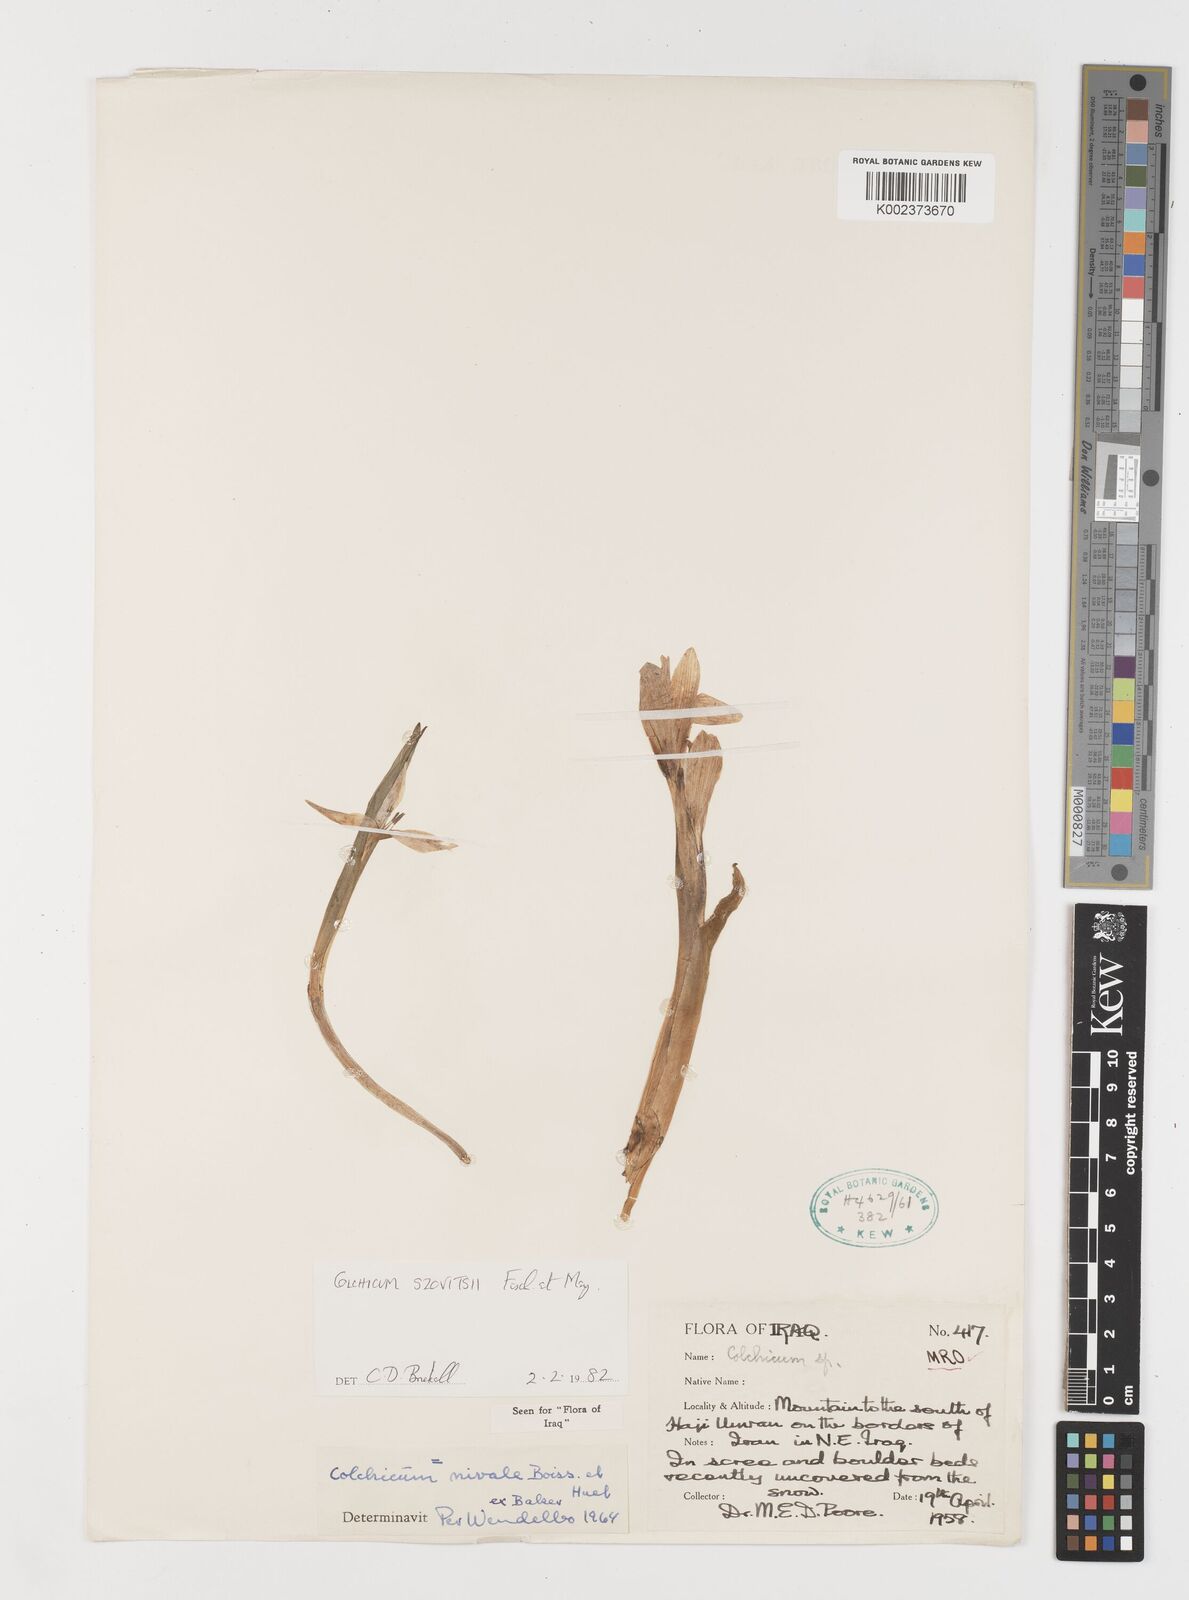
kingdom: Plantae
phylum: Tracheophyta
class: Liliopsida
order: Liliales
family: Colchicaceae
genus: Colchicum
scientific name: Colchicum szovitsii
